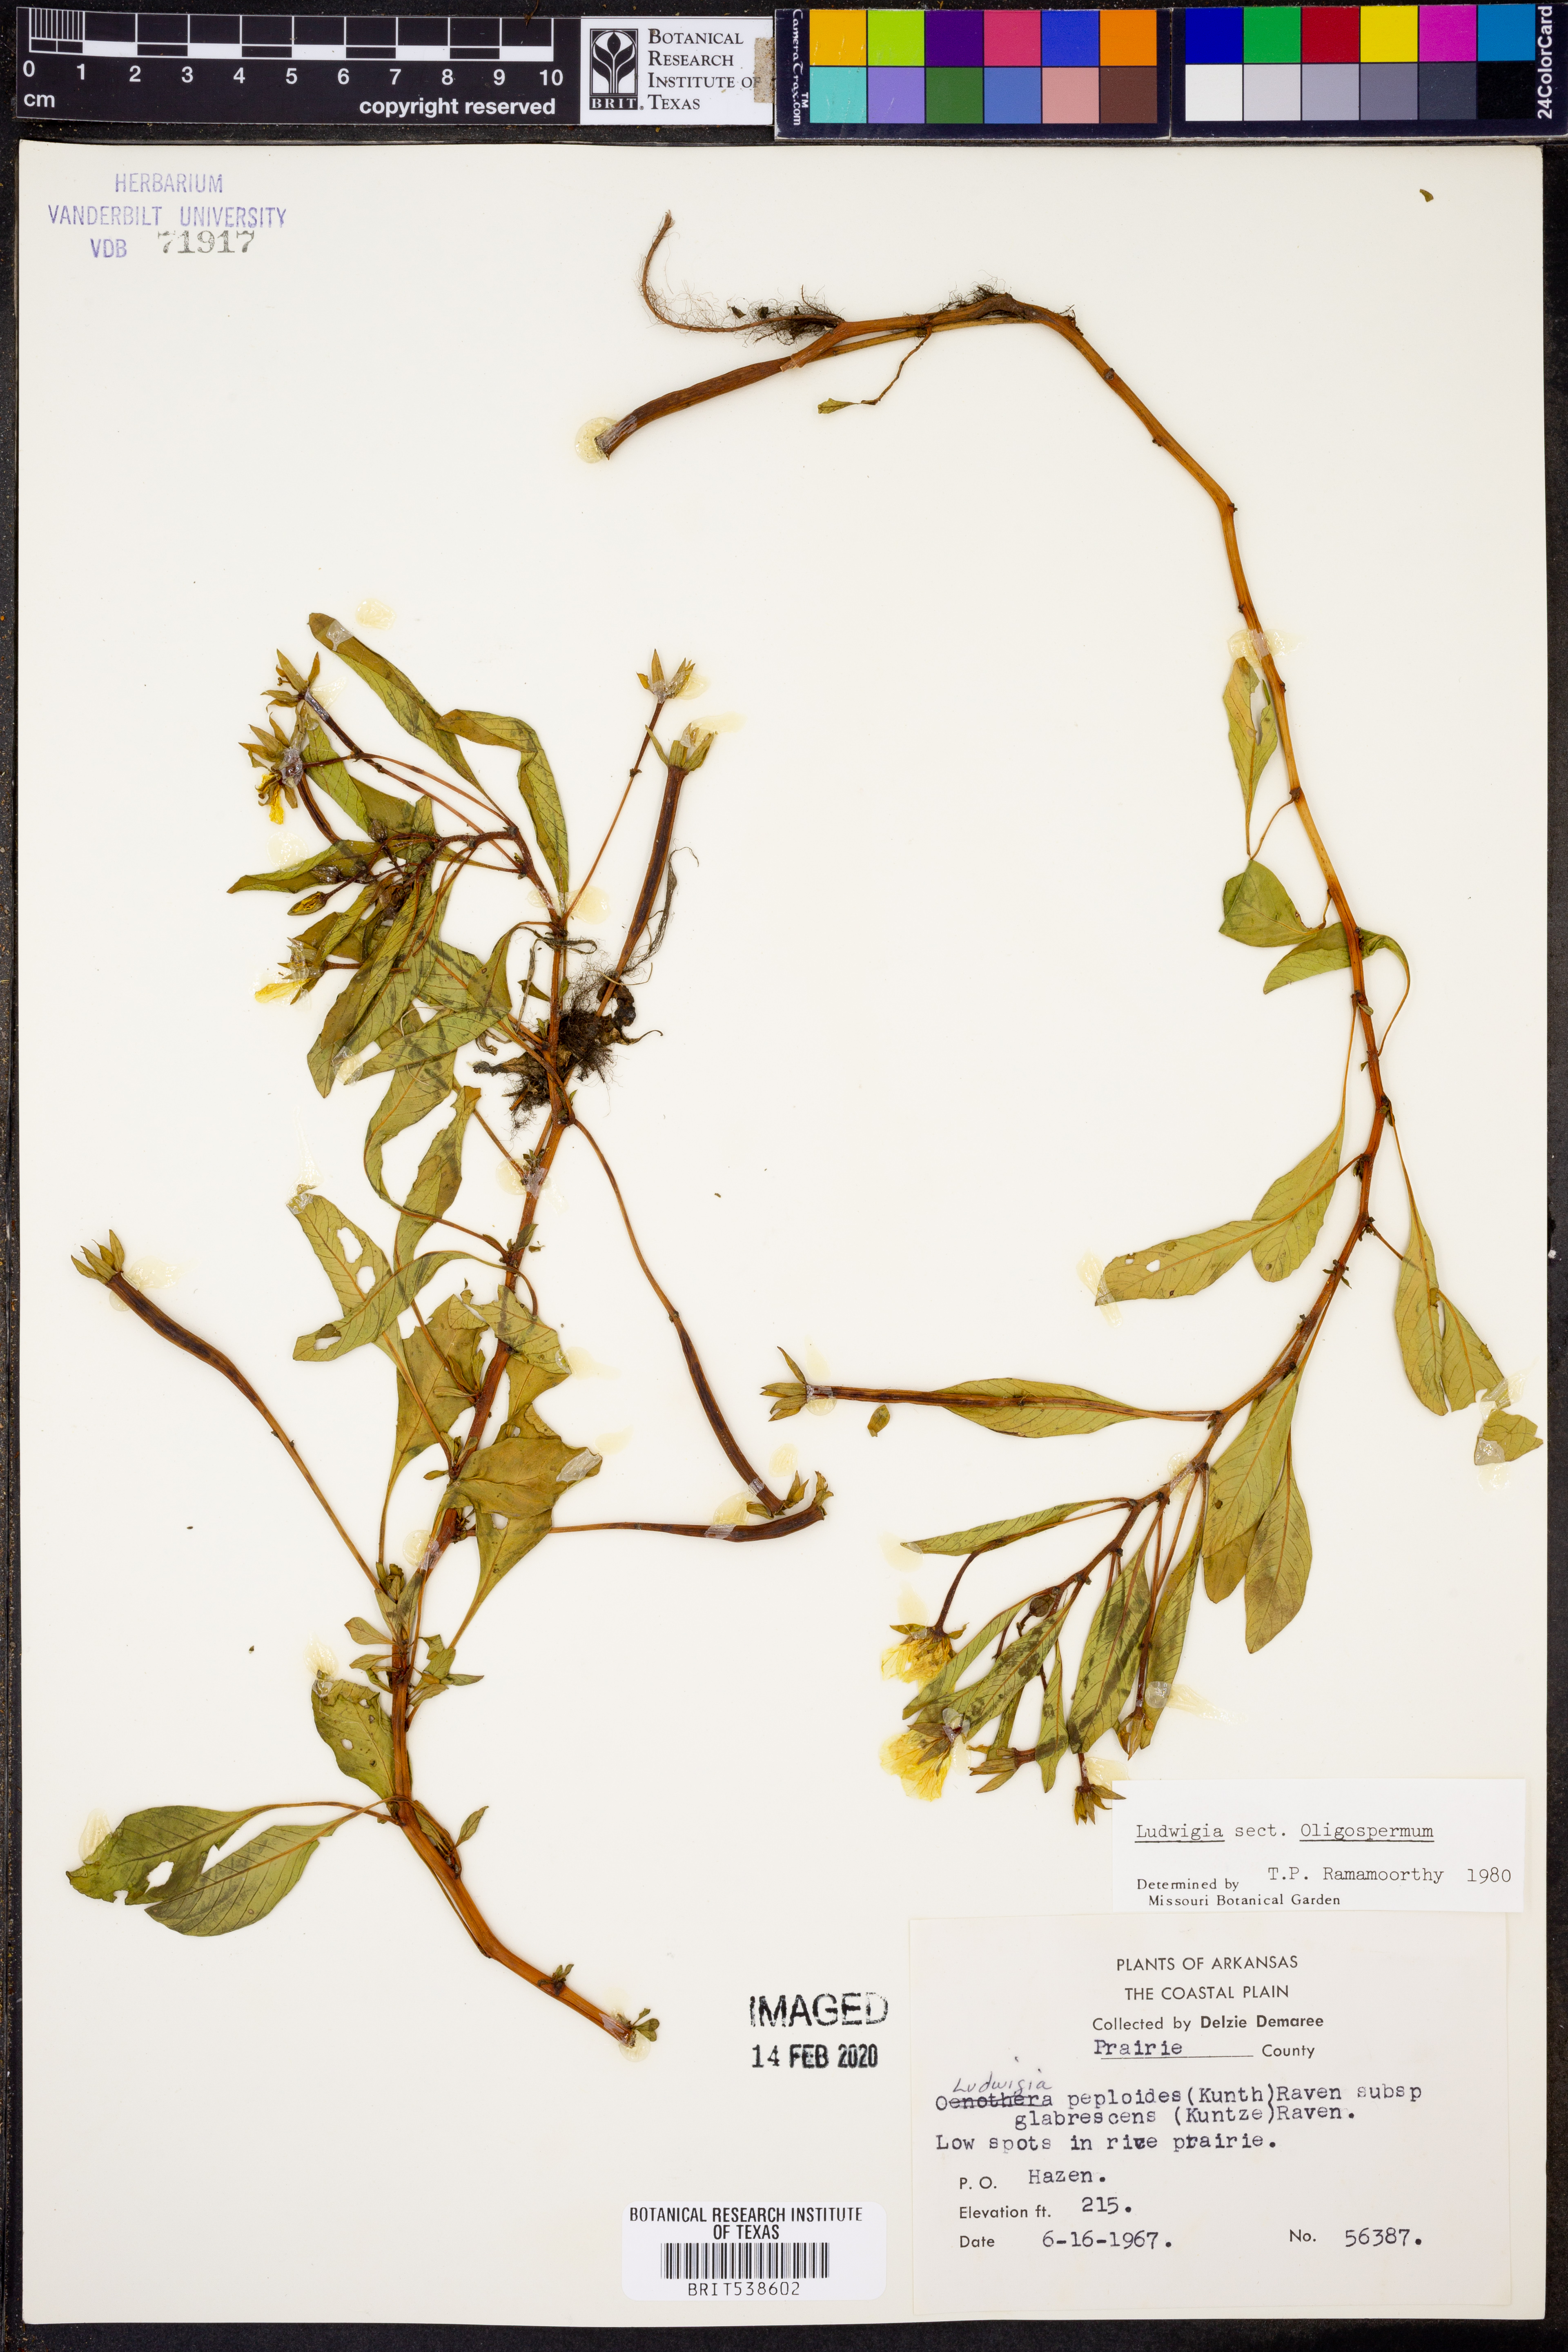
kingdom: Plantae
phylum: Tracheophyta
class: Magnoliopsida
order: Myrtales
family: Onagraceae
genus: Ludwigia
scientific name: Ludwigia peploides
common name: Floating primrose-willow
